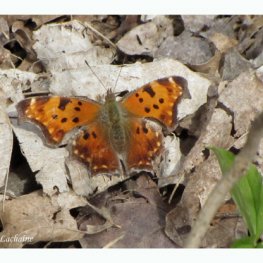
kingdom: Animalia
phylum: Arthropoda
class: Insecta
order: Lepidoptera
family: Nymphalidae
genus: Polygonia
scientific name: Polygonia comma
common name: Eastern Comma
